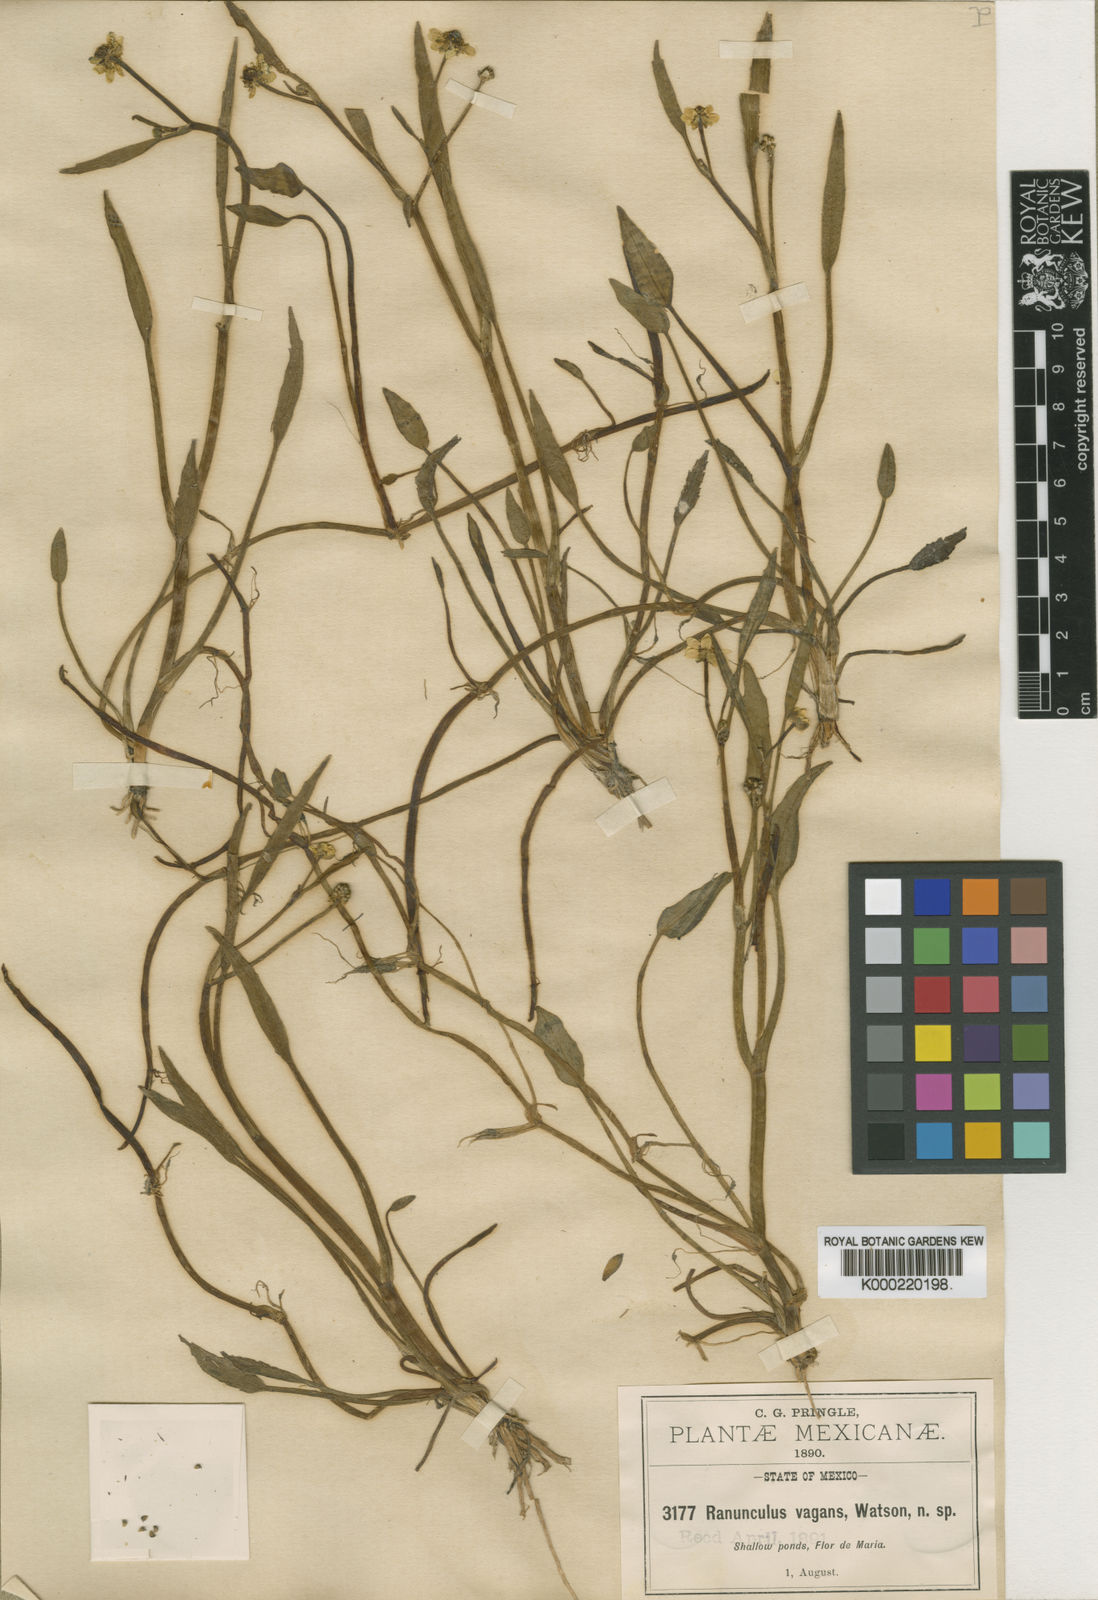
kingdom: Plantae
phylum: Tracheophyta
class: Magnoliopsida
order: Ranunculales
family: Ranunculaceae
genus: Ranunculus
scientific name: Ranunculus hydrocharoides
